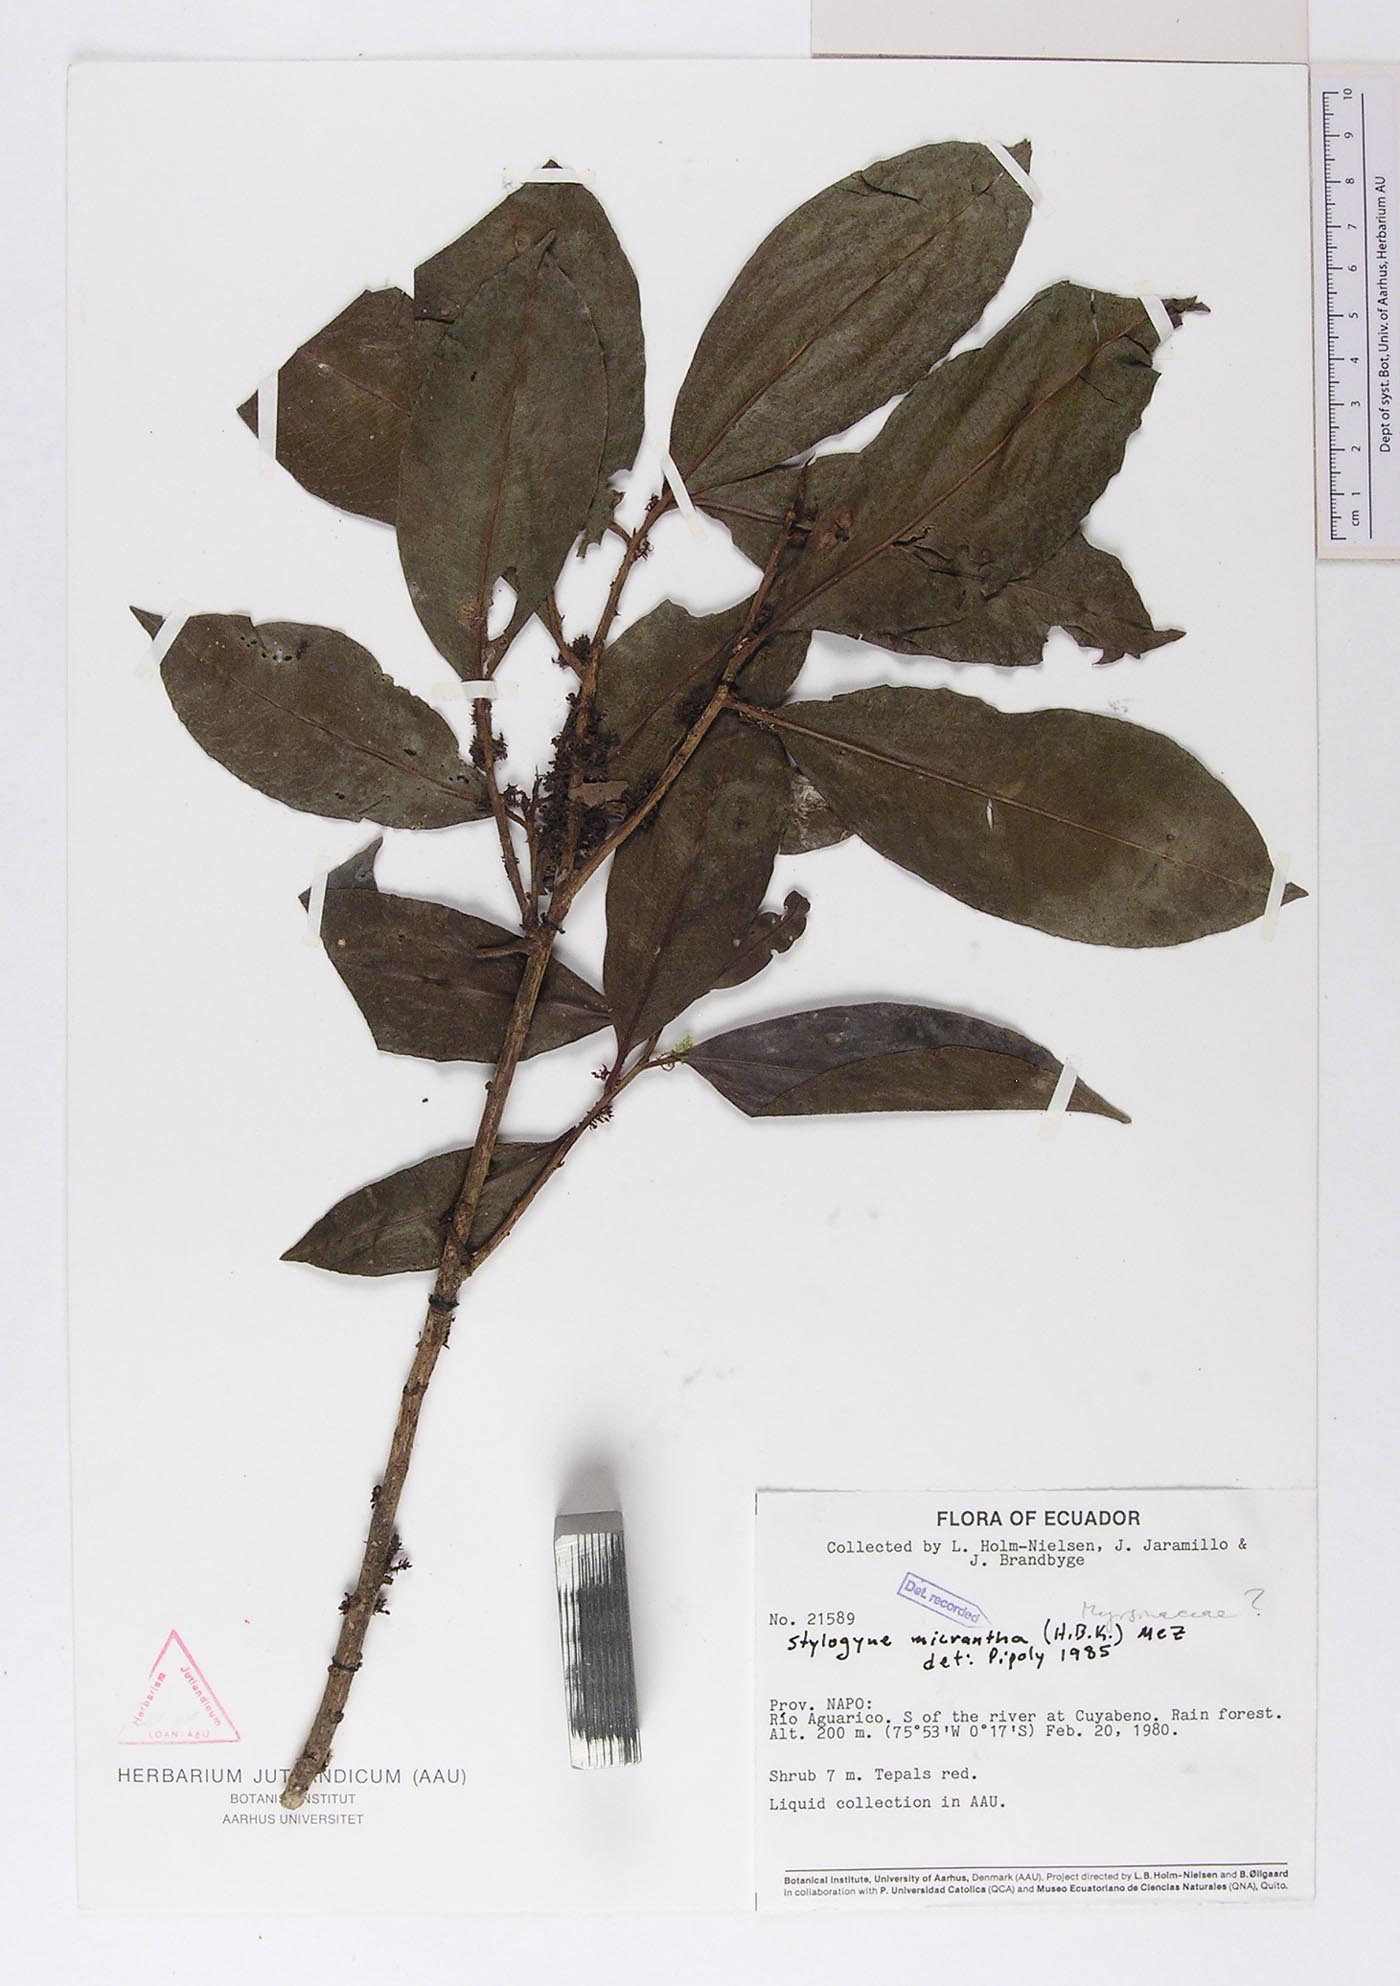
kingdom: Plantae
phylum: Tracheophyta
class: Magnoliopsida
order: Ericales
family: Primulaceae
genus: Stylogyne
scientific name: Stylogyne micrantha
